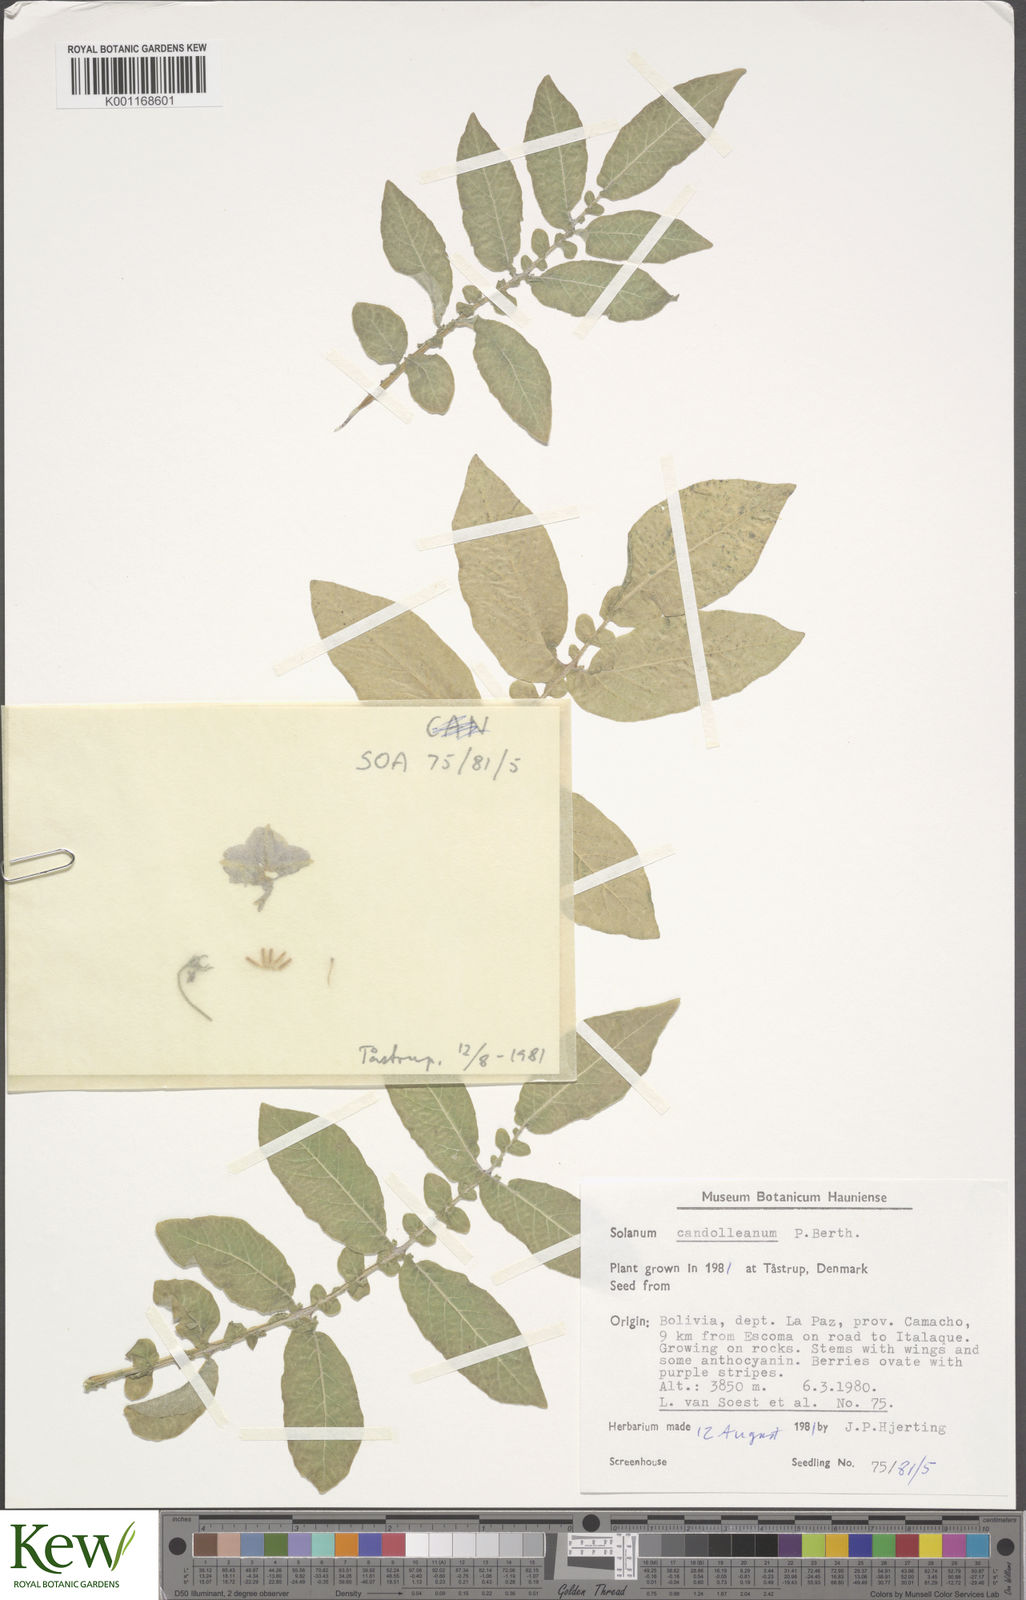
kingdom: Plantae
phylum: Tracheophyta
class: Magnoliopsida
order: Solanales
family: Solanaceae
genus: Solanum
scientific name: Solanum candolleanum
